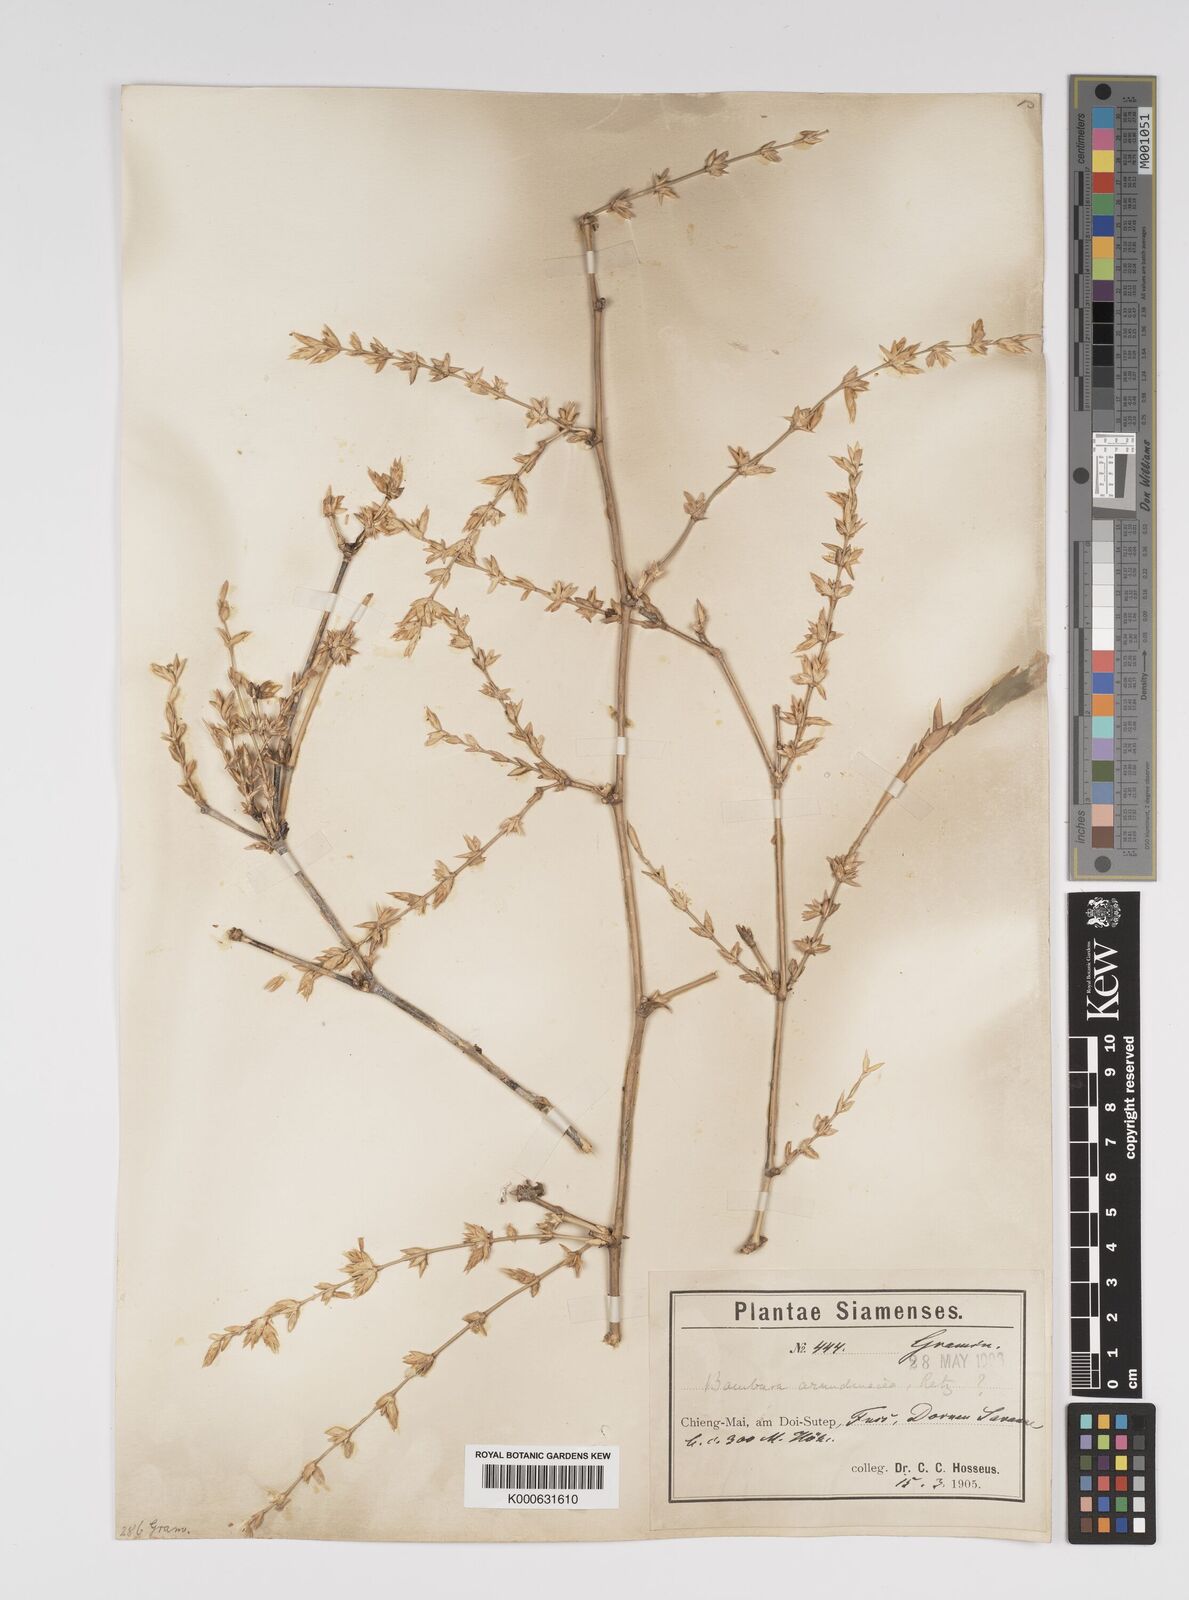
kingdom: Plantae
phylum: Tracheophyta
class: Liliopsida
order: Poales
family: Poaceae
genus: Bambusa
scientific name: Bambusa bambos
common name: Indian thorny bamboo
